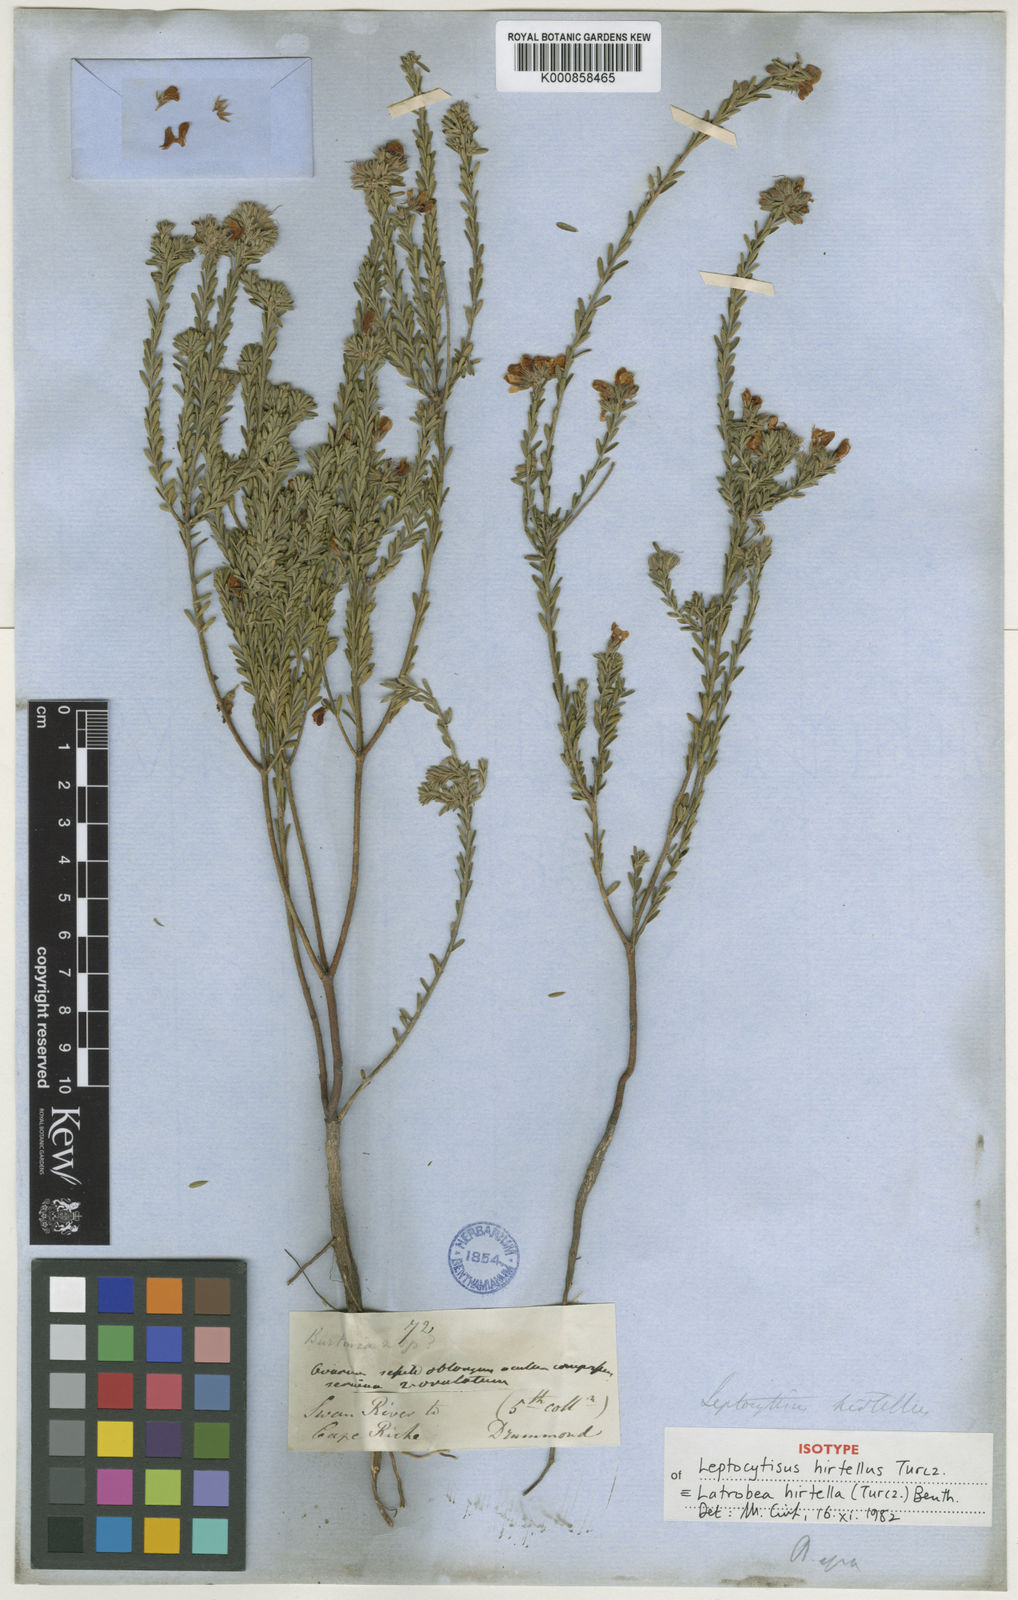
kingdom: Plantae
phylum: Tracheophyta
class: Magnoliopsida
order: Fabales
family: Fabaceae
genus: Latrobea
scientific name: Latrobea hirtella
